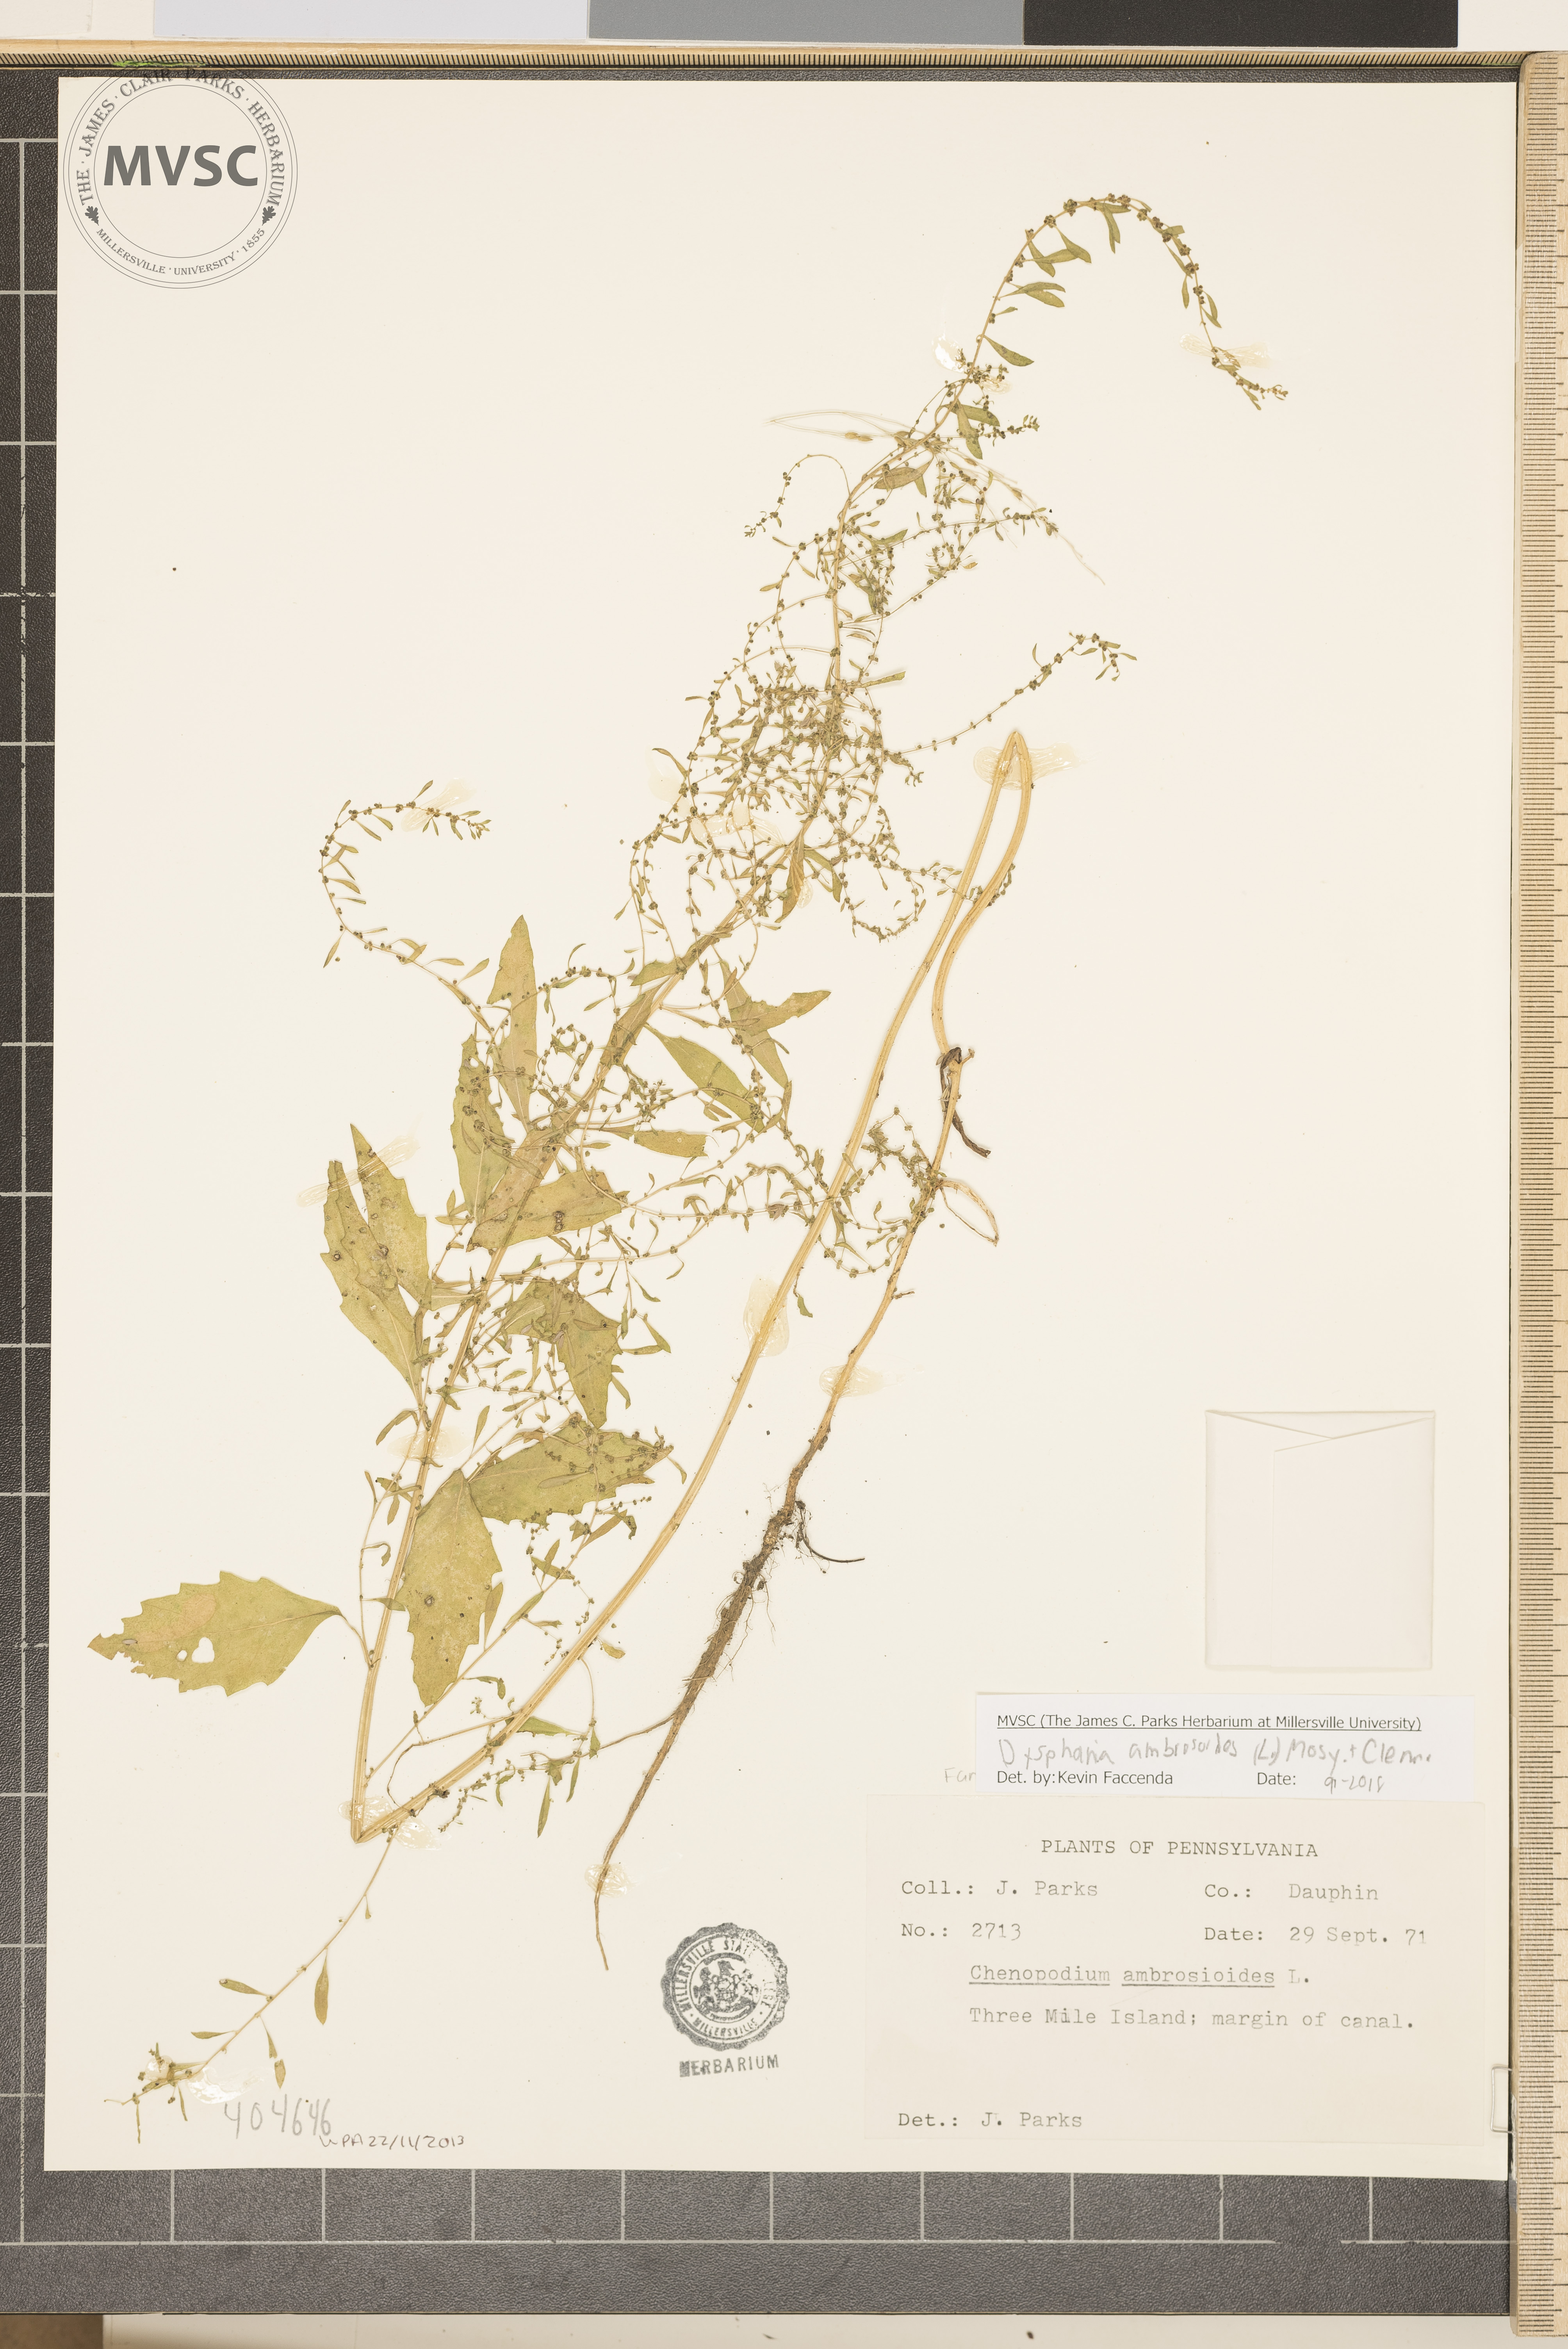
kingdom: Plantae
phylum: Tracheophyta
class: Magnoliopsida
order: Caryophyllales
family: Amaranthaceae
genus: Dysphania
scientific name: Dysphania ambrosioides
